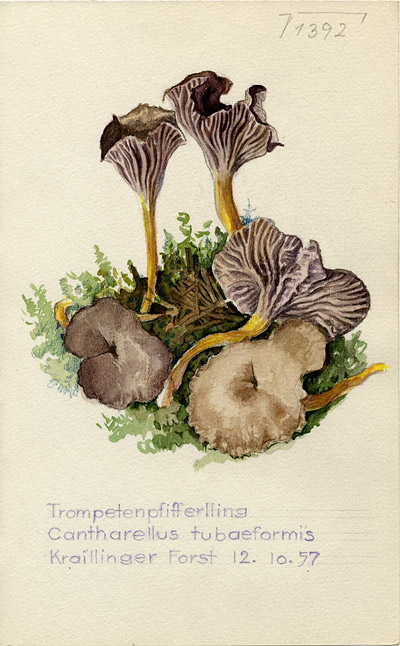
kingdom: Fungi
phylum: Basidiomycota
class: Agaricomycetes
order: Cantharellales
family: Hydnaceae
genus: Craterellus
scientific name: Craterellus tubaeformis
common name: Yellowfoot
